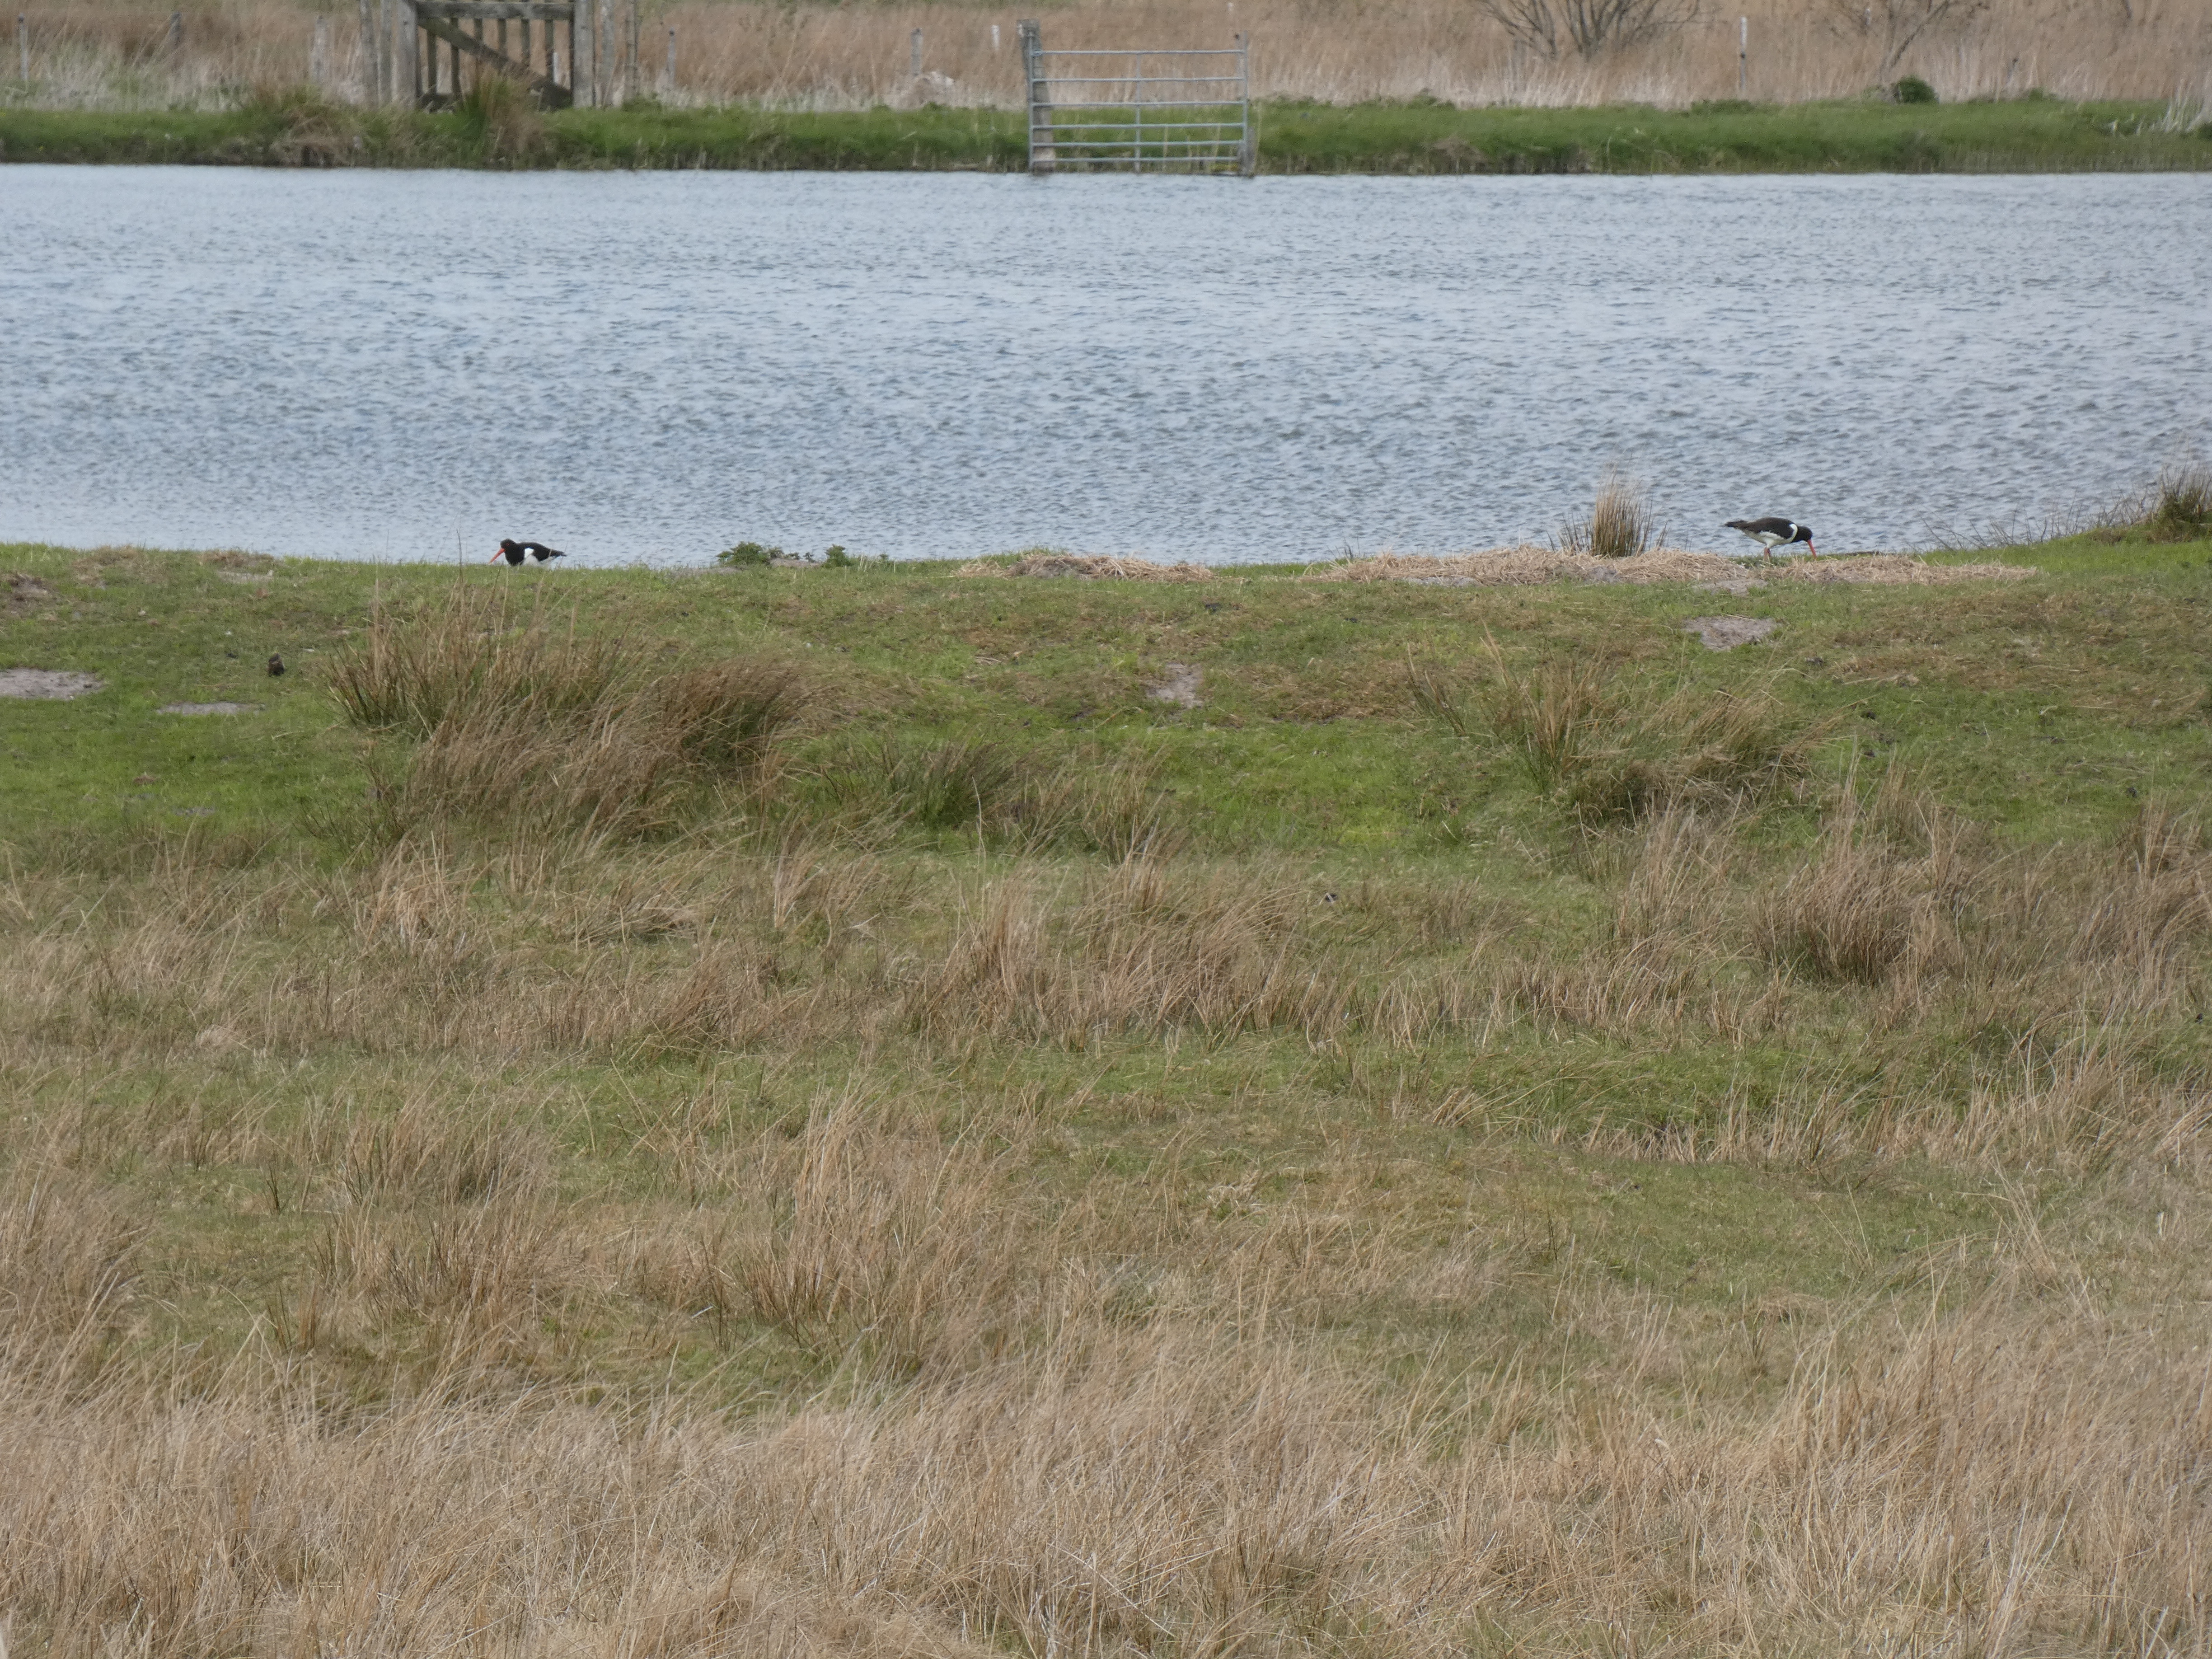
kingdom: Animalia
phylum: Chordata
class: Aves
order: Charadriiformes
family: Haematopodidae
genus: Haematopus
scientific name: Haematopus ostralegus
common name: Strandskade
